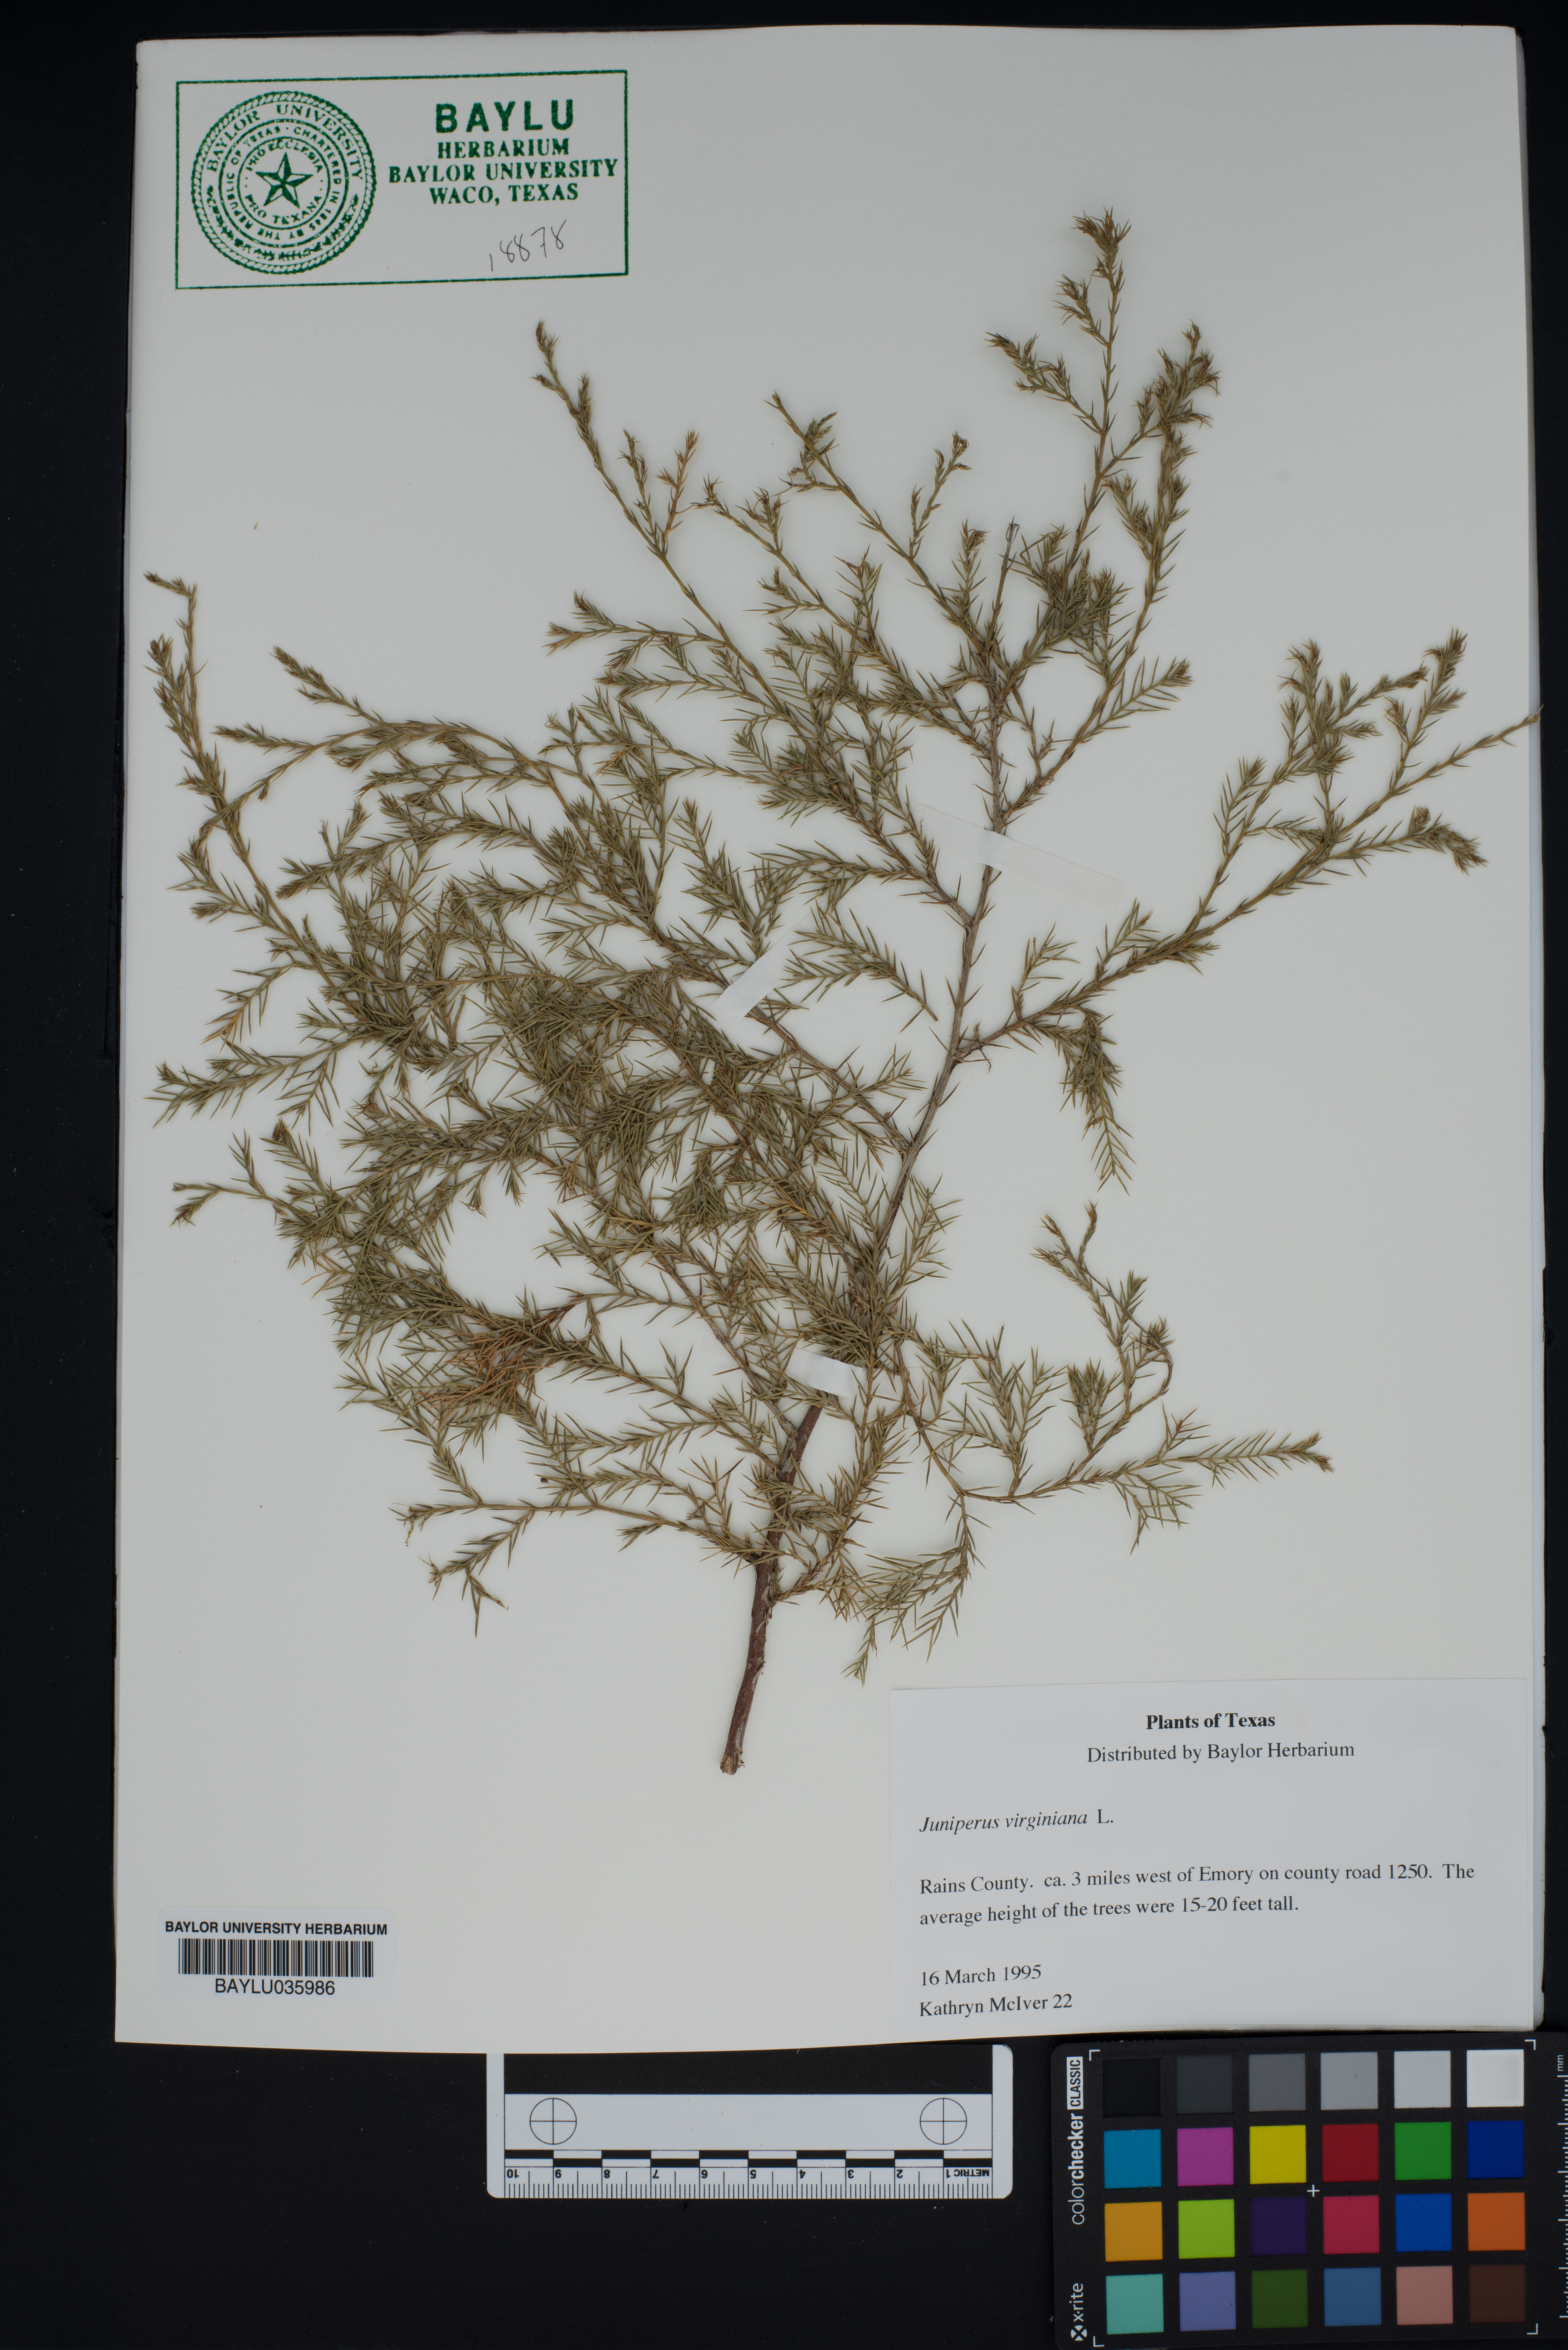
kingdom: Plantae
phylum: Tracheophyta
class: Pinopsida
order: Pinales
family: Cupressaceae
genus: Juniperus
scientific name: Juniperus virginiana
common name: Red juniper
